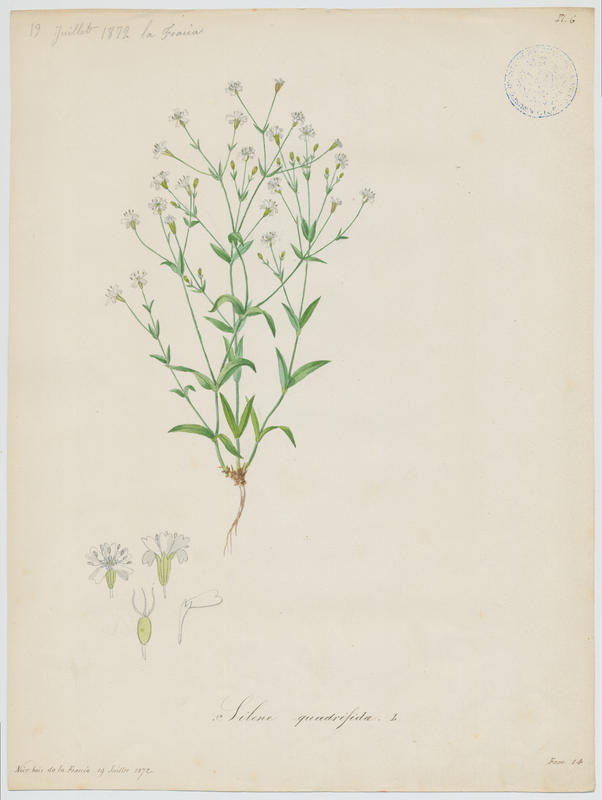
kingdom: Plantae
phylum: Tracheophyta
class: Magnoliopsida
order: Caryophyllales
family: Caryophyllaceae
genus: Heliosperma
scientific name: Heliosperma pusillum
